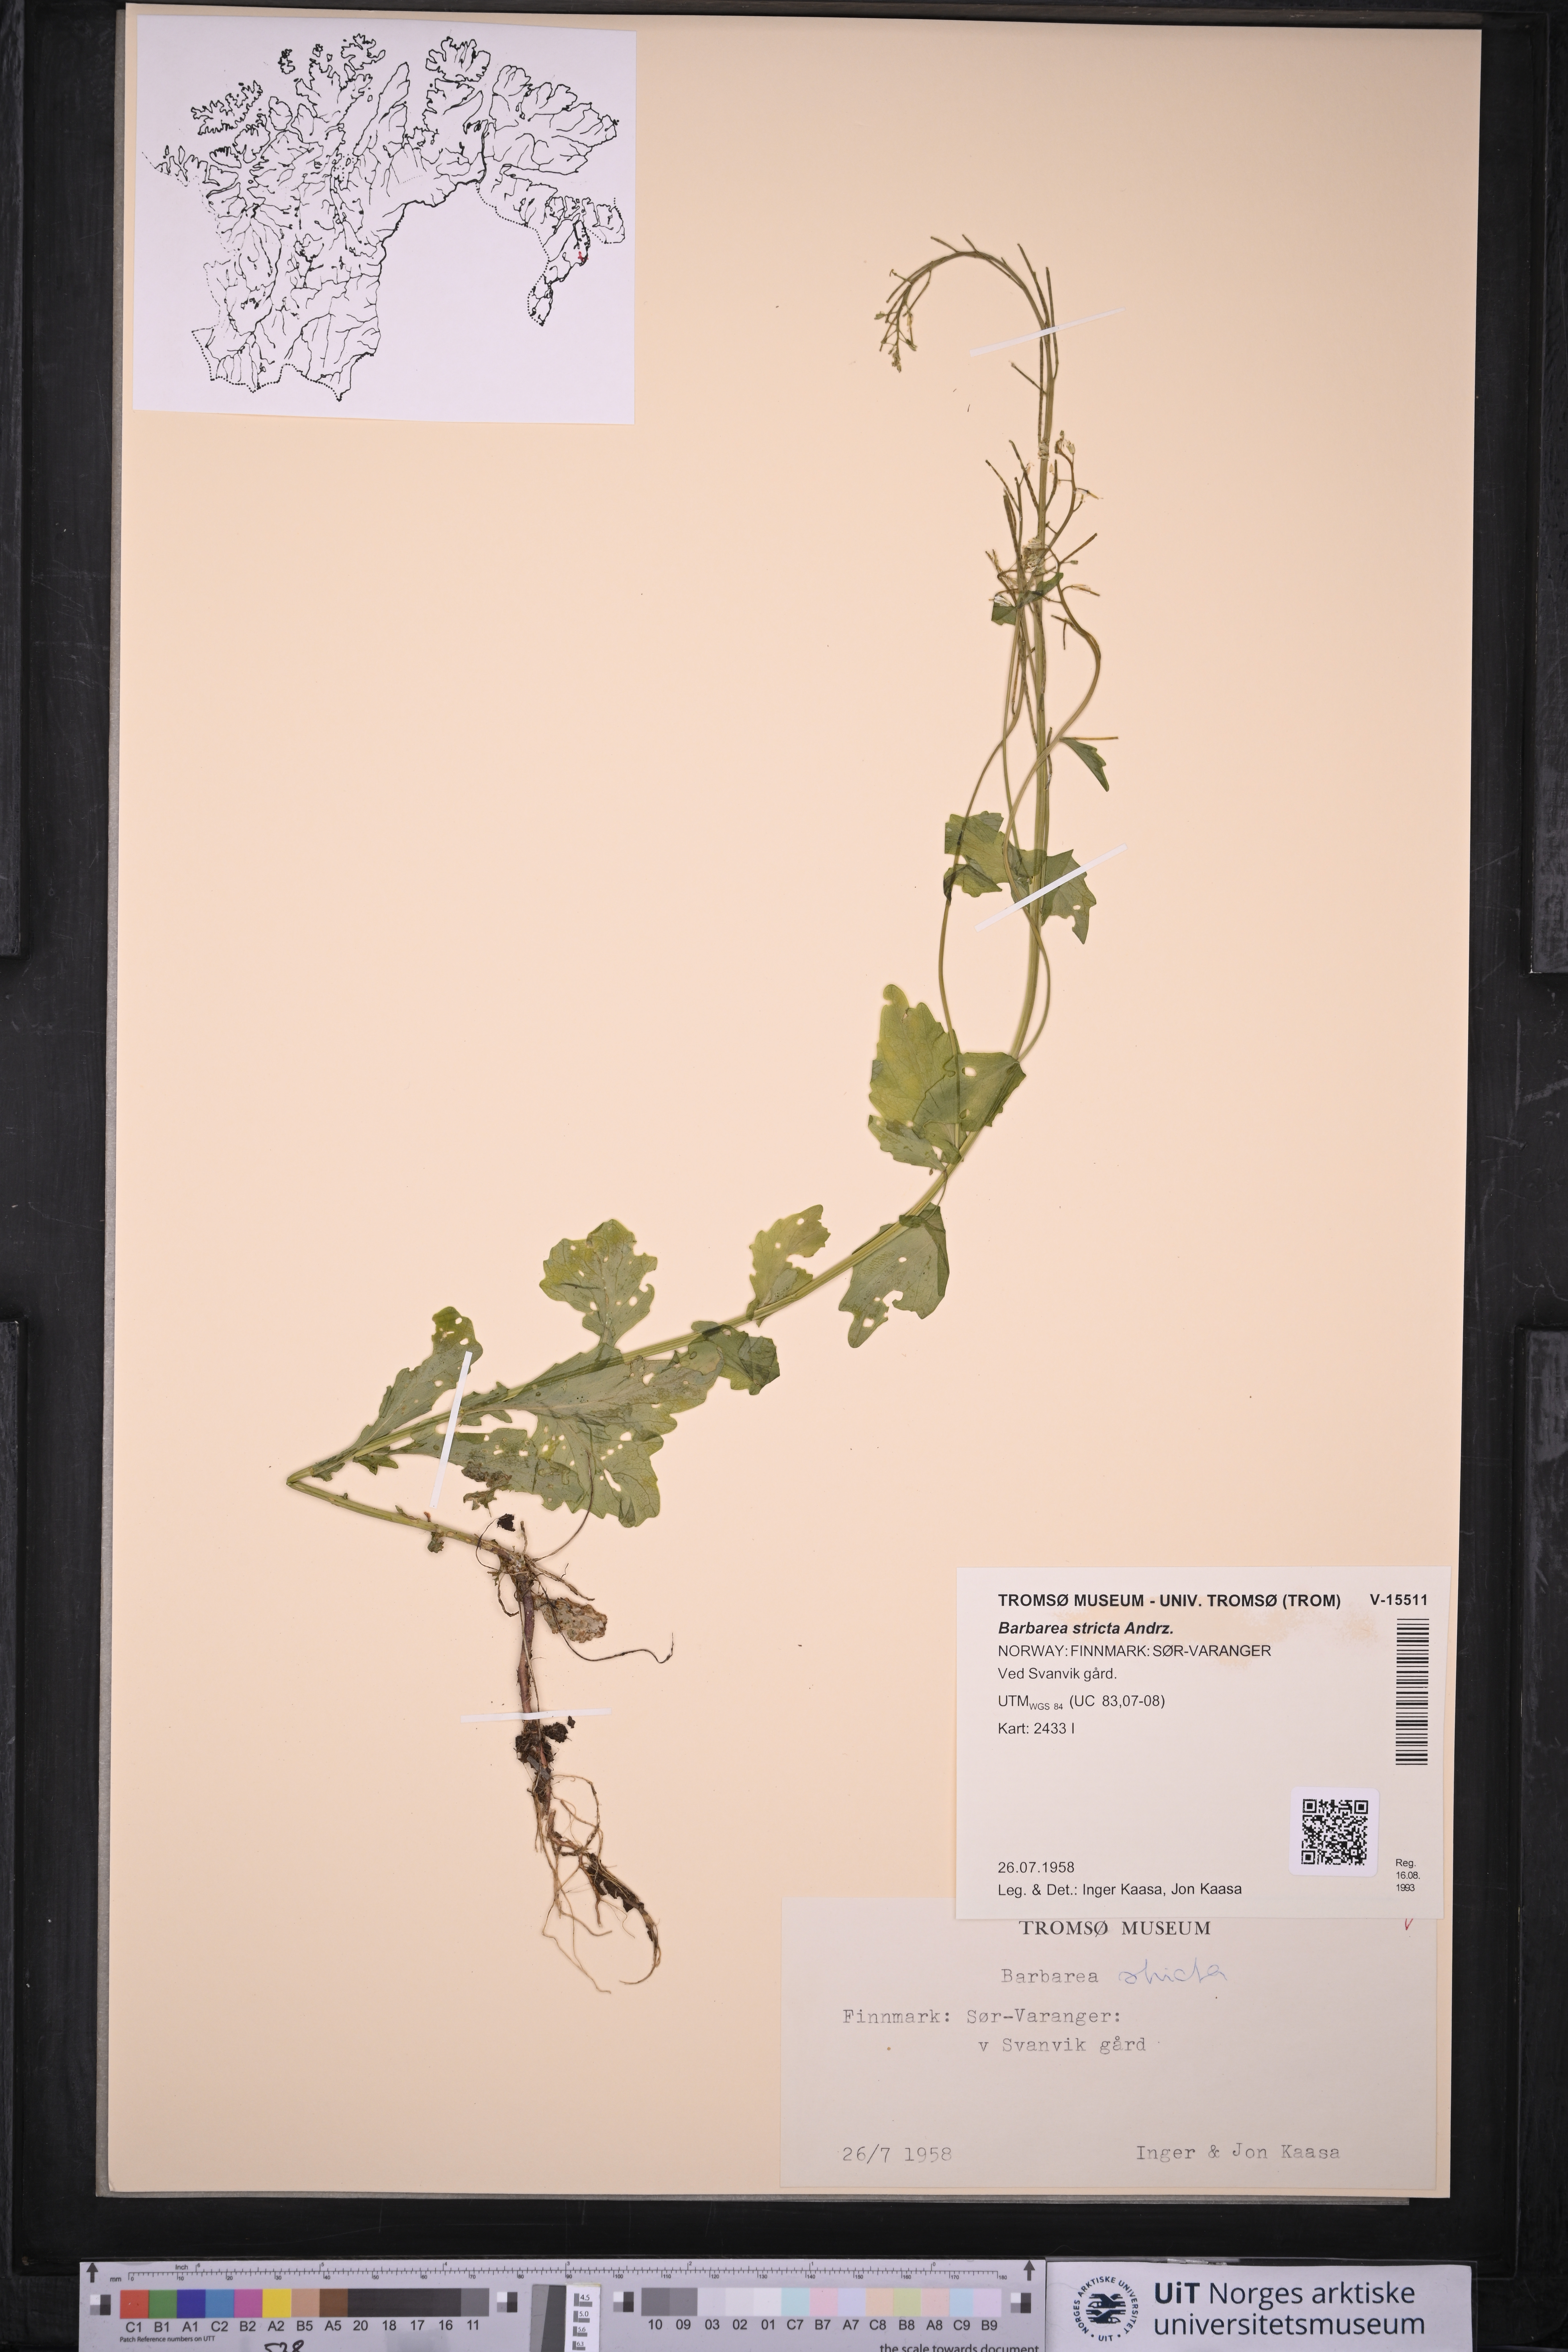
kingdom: Plantae
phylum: Tracheophyta
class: Magnoliopsida
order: Brassicales
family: Brassicaceae
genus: Barbarea
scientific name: Barbarea stricta
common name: Small-flowered winter-cress
